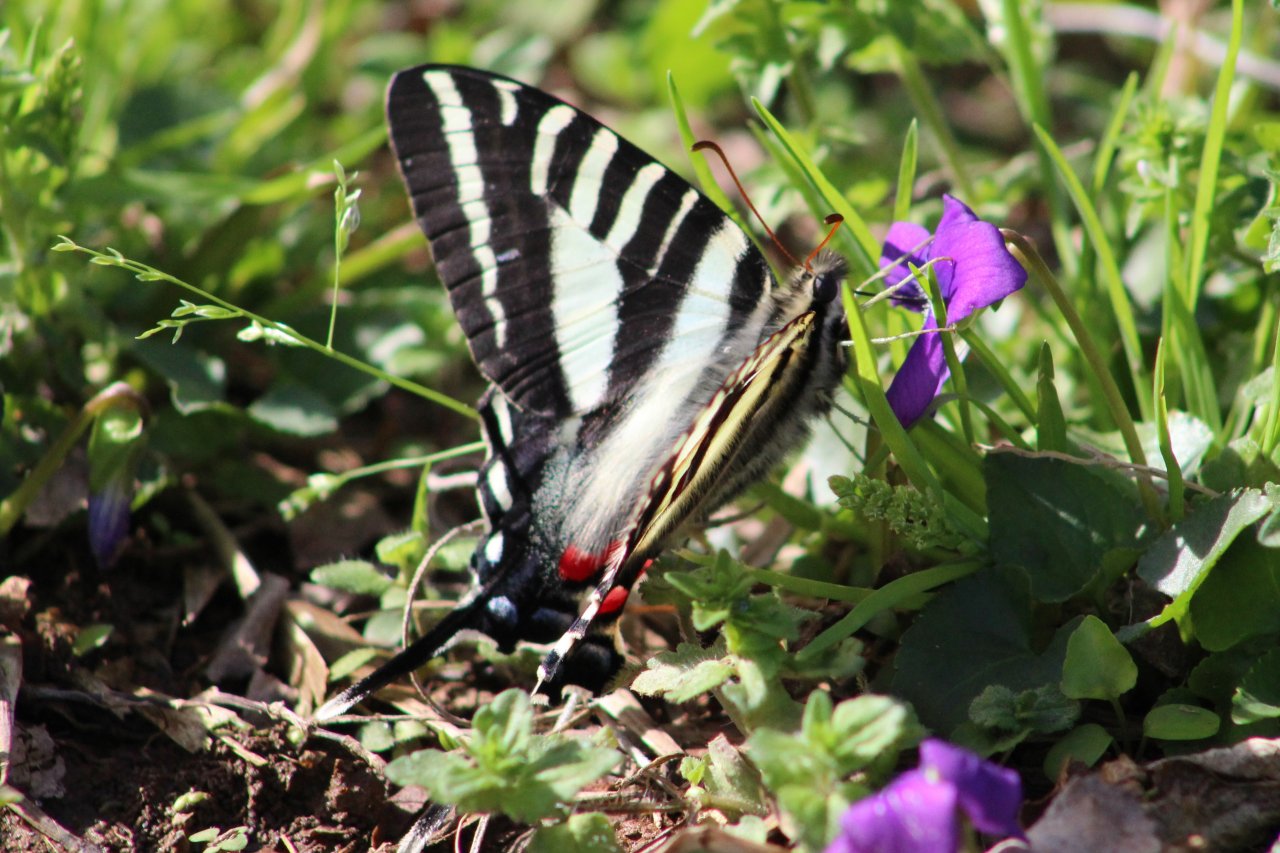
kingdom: Animalia
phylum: Arthropoda
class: Insecta
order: Lepidoptera
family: Papilionidae
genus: Protographium
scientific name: Protographium marcellus
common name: Zebra Swallowtail
